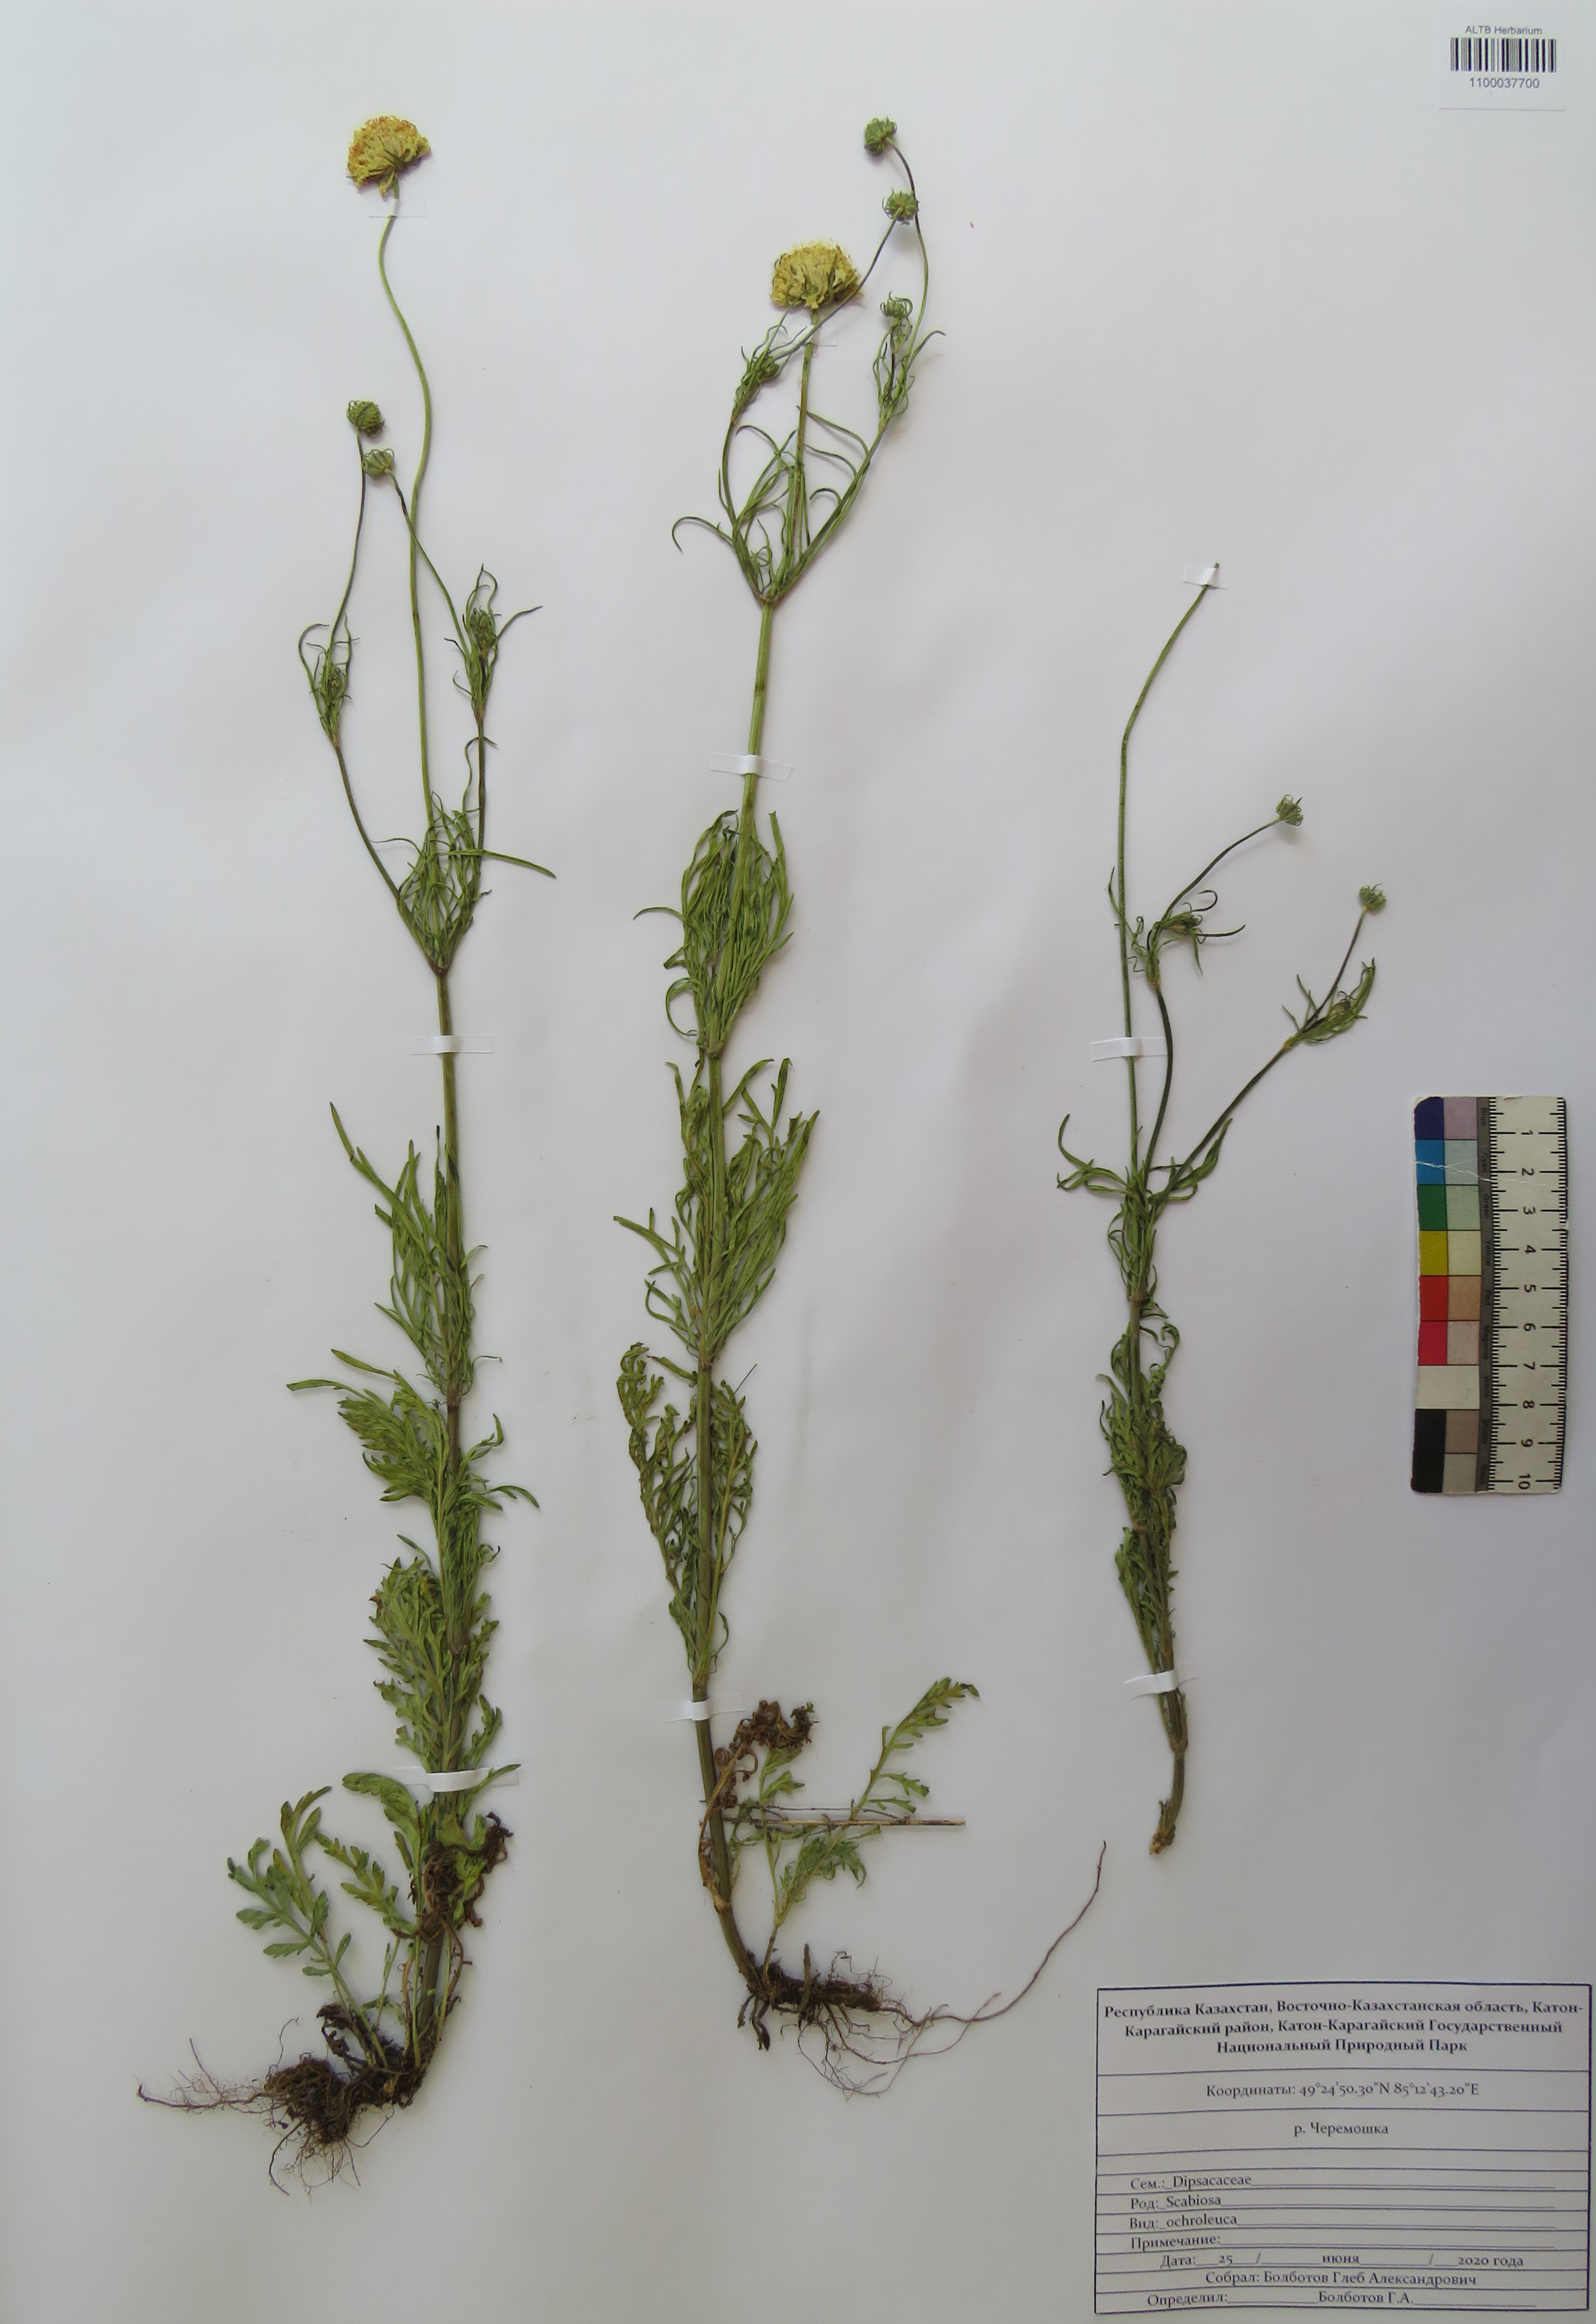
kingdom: Plantae
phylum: Tracheophyta
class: Magnoliopsida
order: Dipsacales
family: Caprifoliaceae
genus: Scabiosa
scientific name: Scabiosa ochroleuca
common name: Cream pincushions
